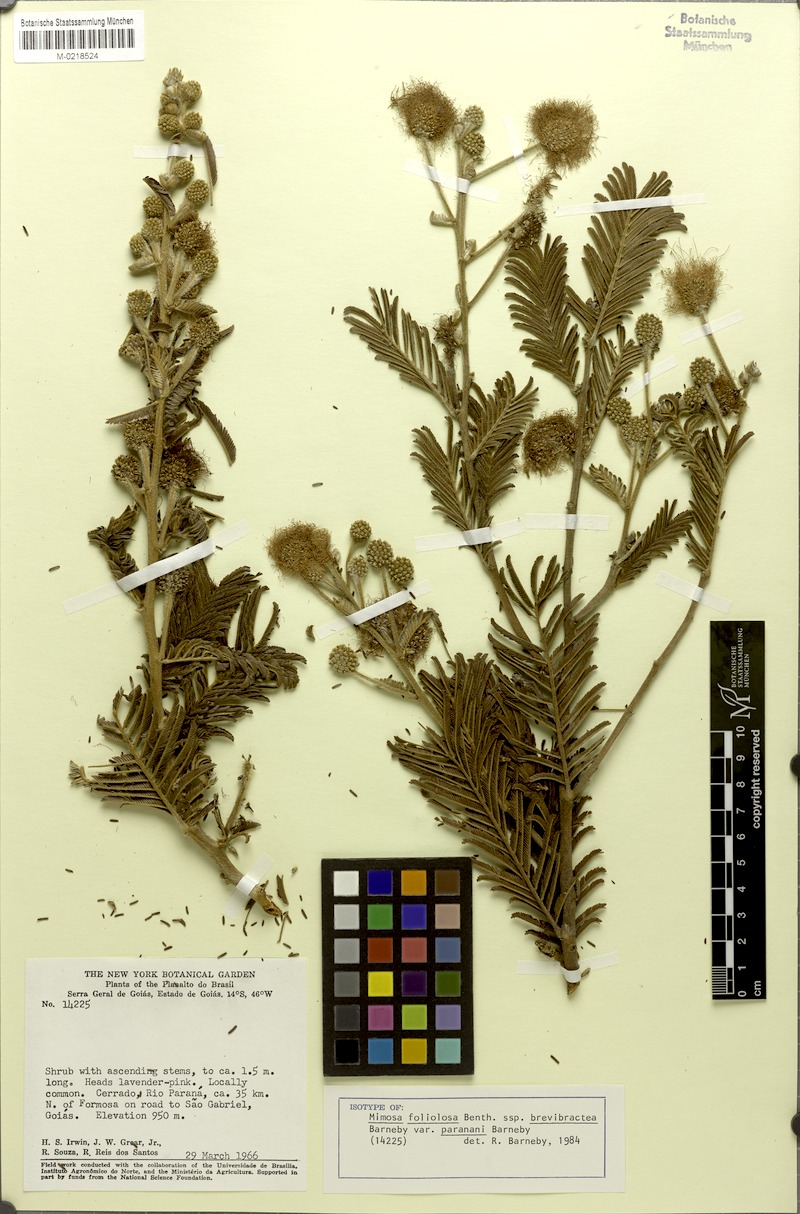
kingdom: Plantae
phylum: Tracheophyta
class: Magnoliopsida
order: Fabales
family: Fabaceae
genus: Mimosa
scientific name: Mimosa foliolosa
